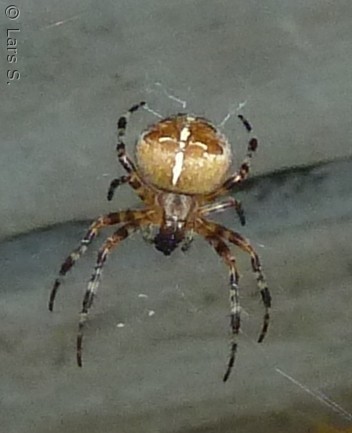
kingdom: Animalia
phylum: Arthropoda
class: Arachnida
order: Araneae
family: Araneidae
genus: Araneus
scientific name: Araneus diadematus
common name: Korsedderkop
